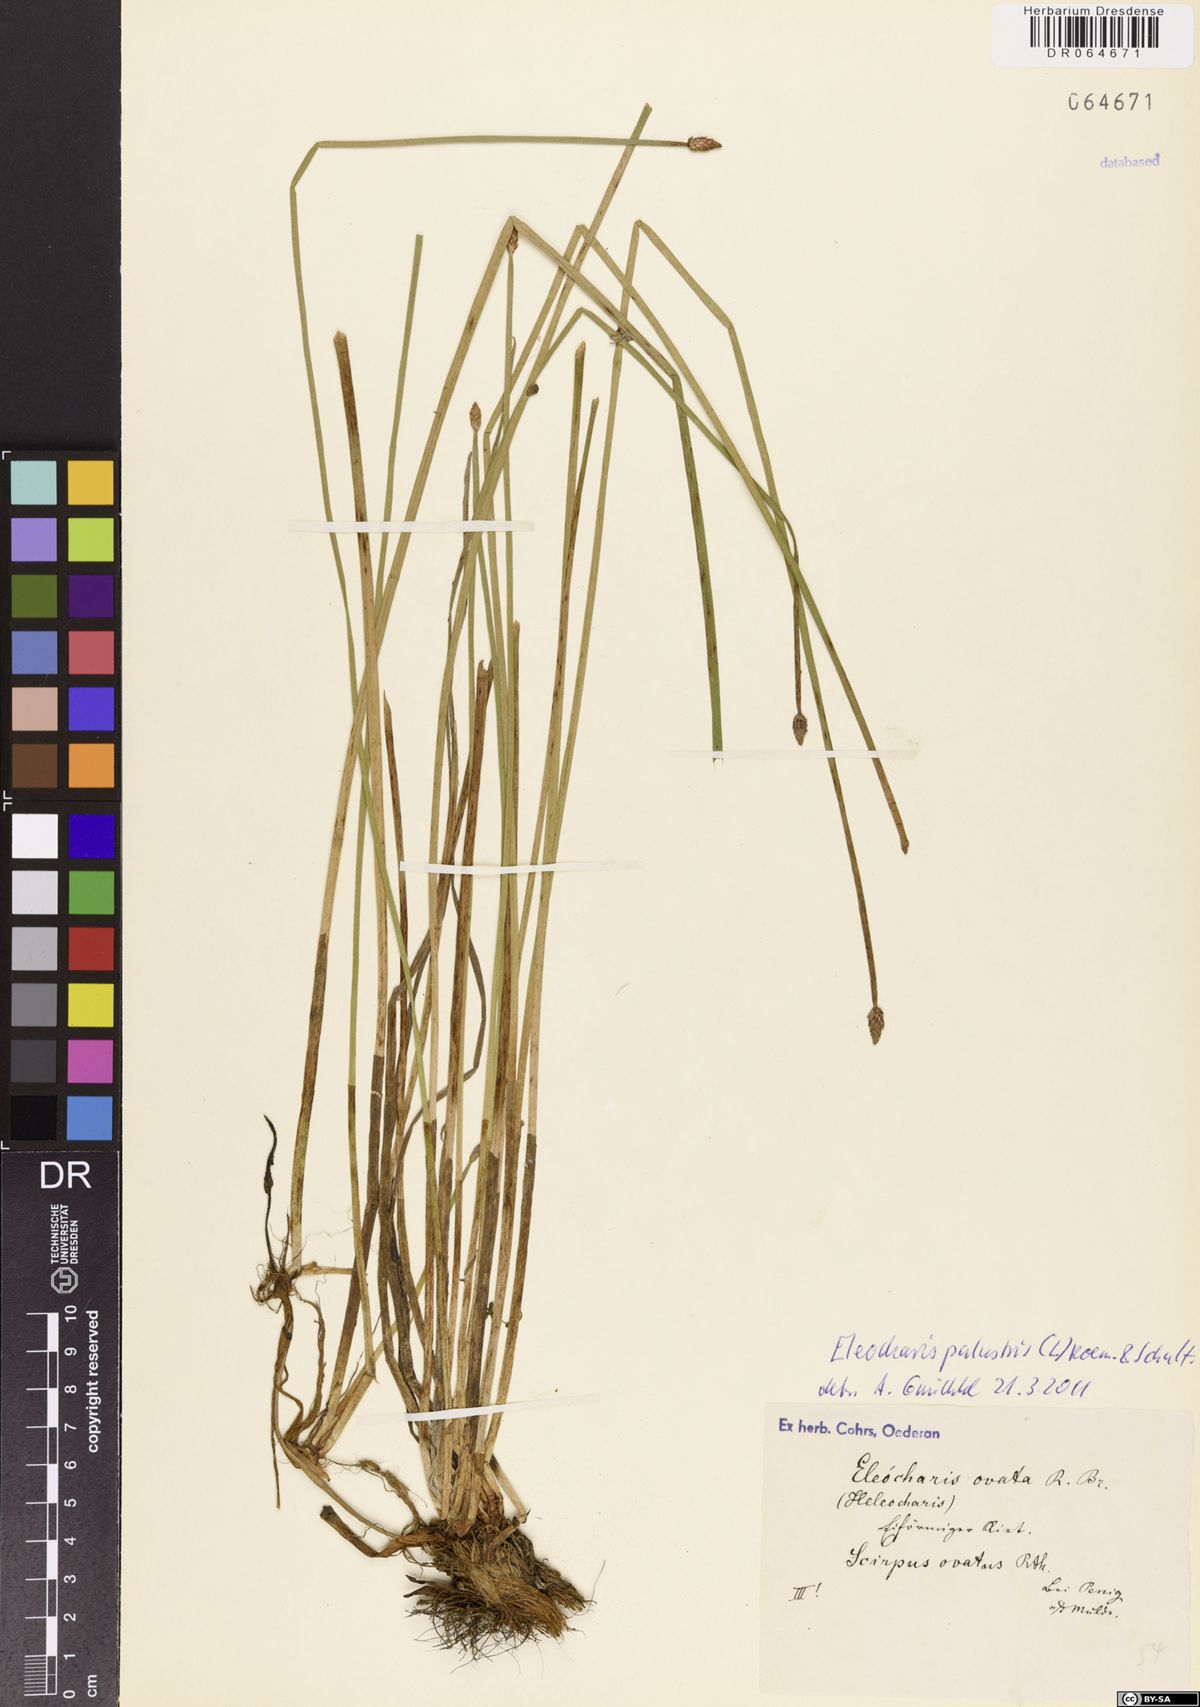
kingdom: Plantae
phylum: Tracheophyta
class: Liliopsida
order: Poales
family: Cyperaceae
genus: Eleocharis
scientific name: Eleocharis palustris
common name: Common spike-rush
